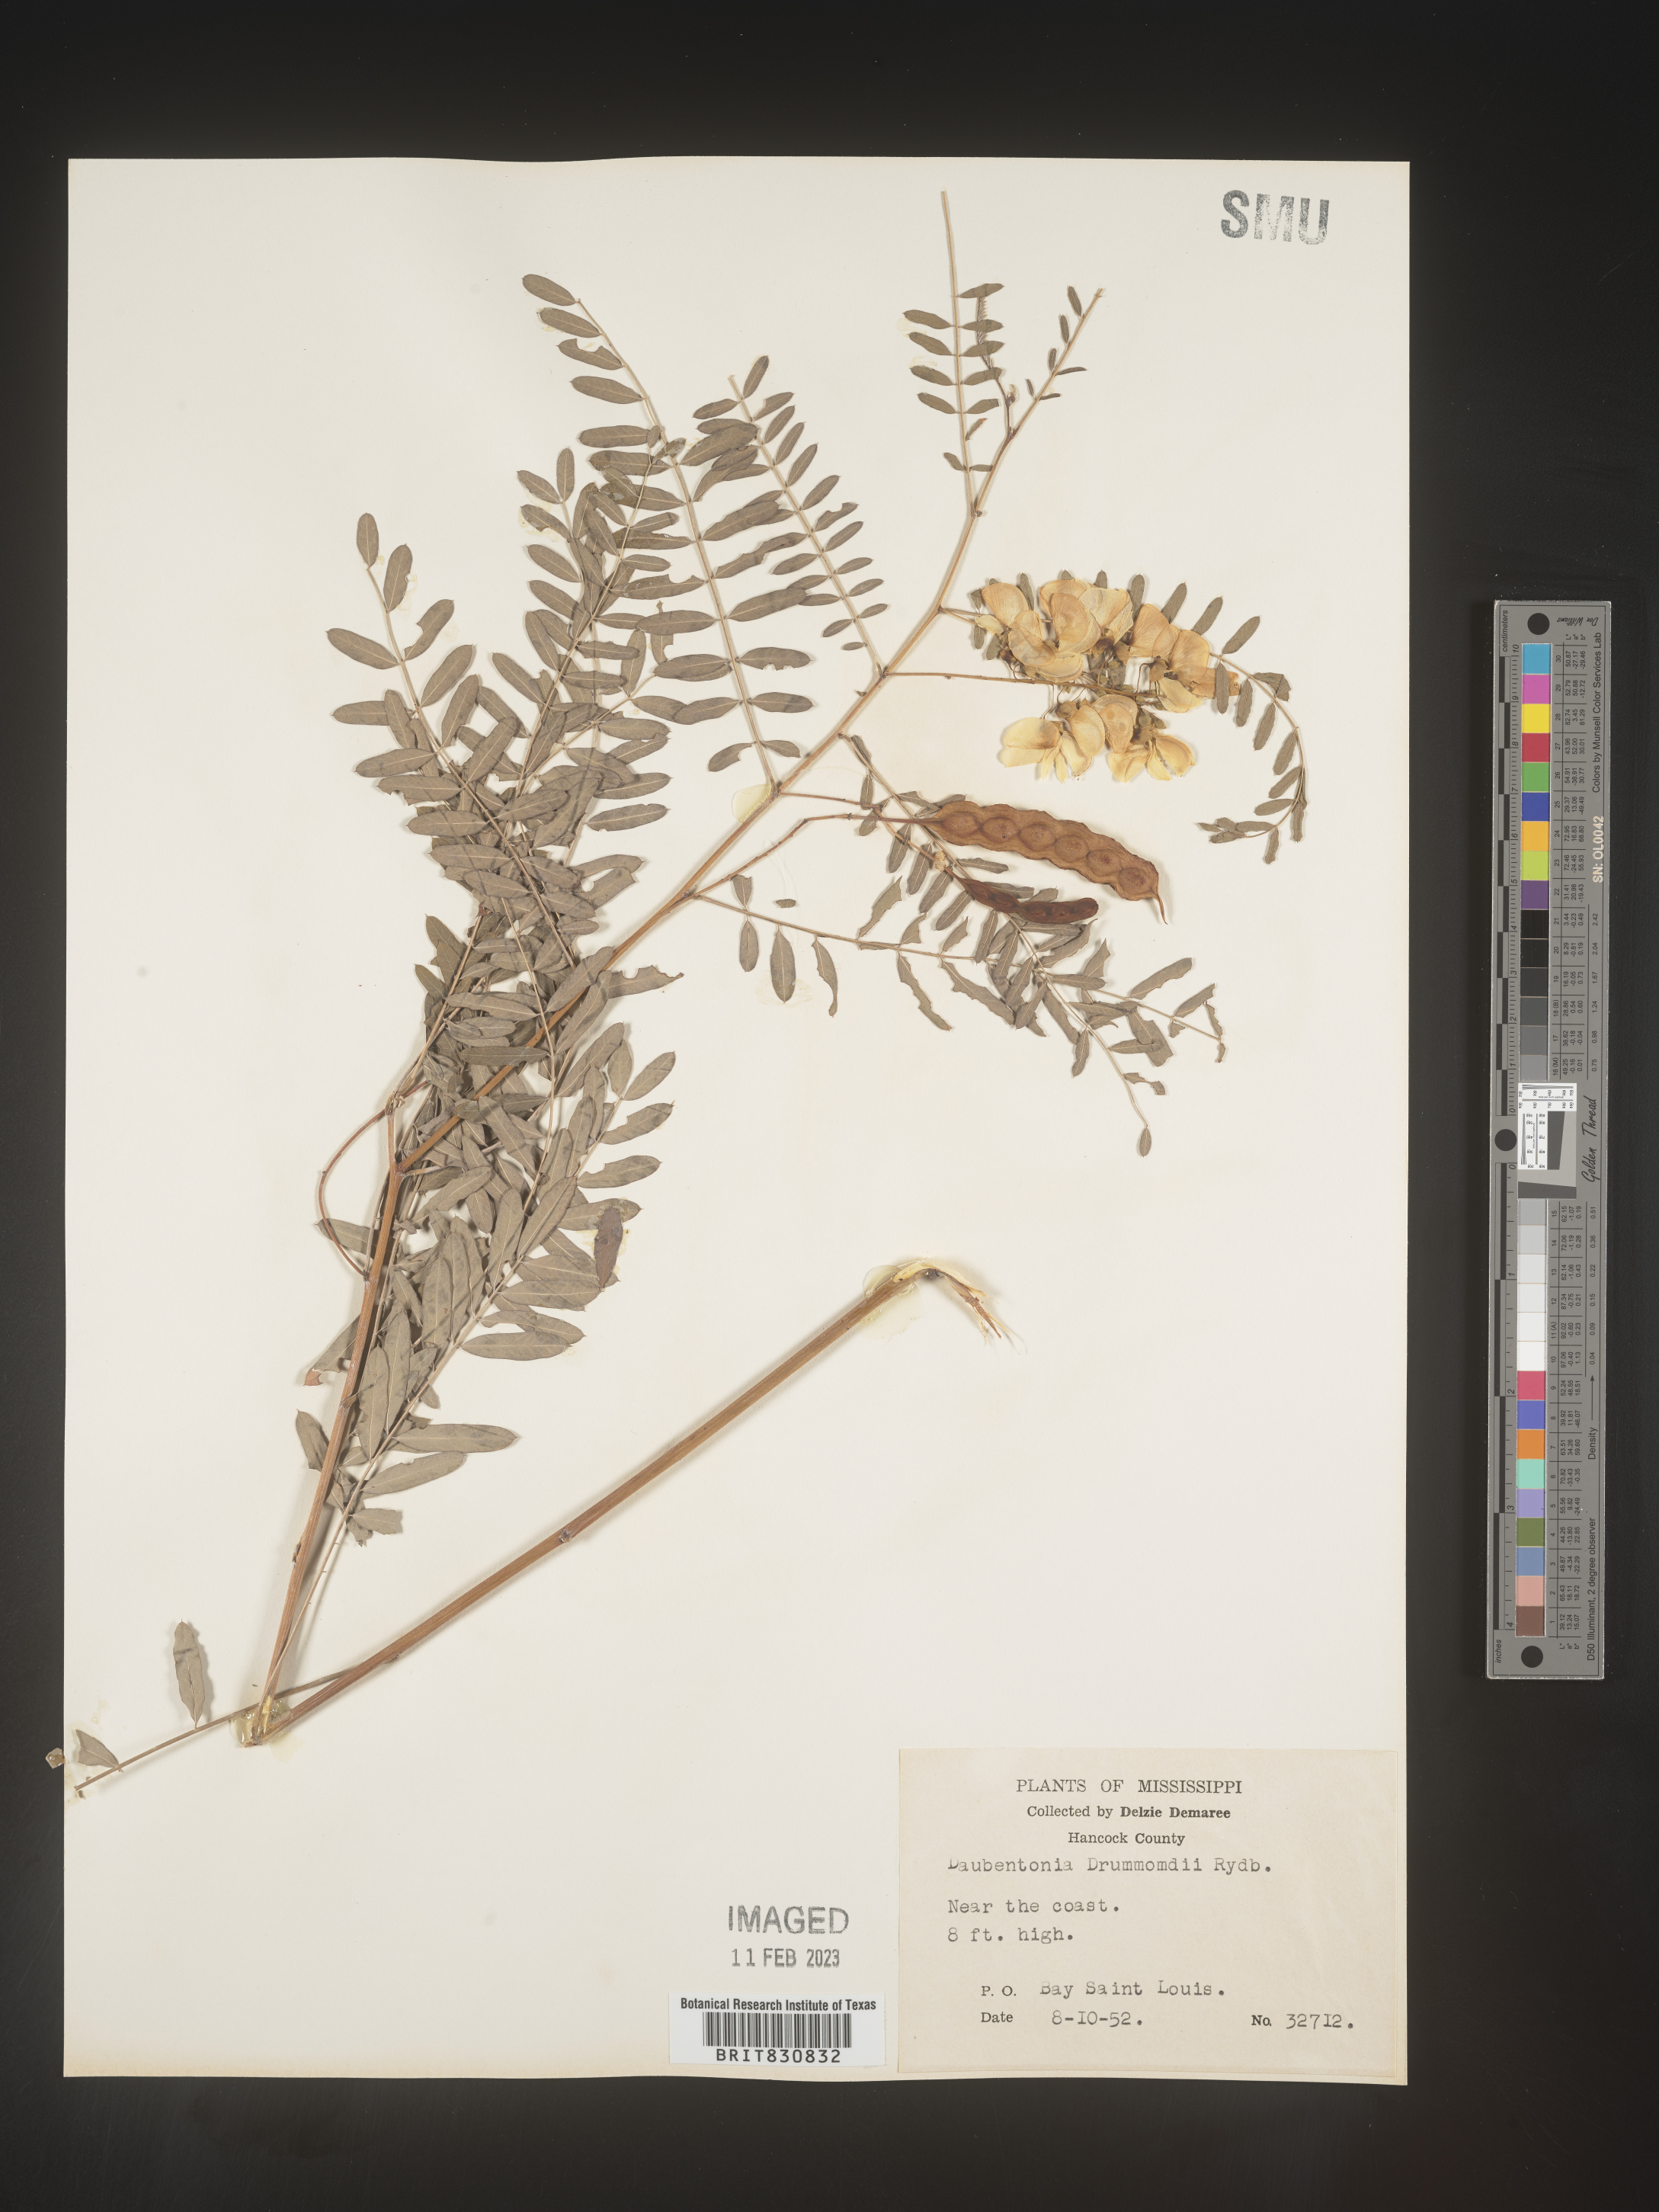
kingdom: Plantae
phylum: Tracheophyta
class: Magnoliopsida
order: Fabales
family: Fabaceae
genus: Sesbania
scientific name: Sesbania drummondii
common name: Poison-bean
